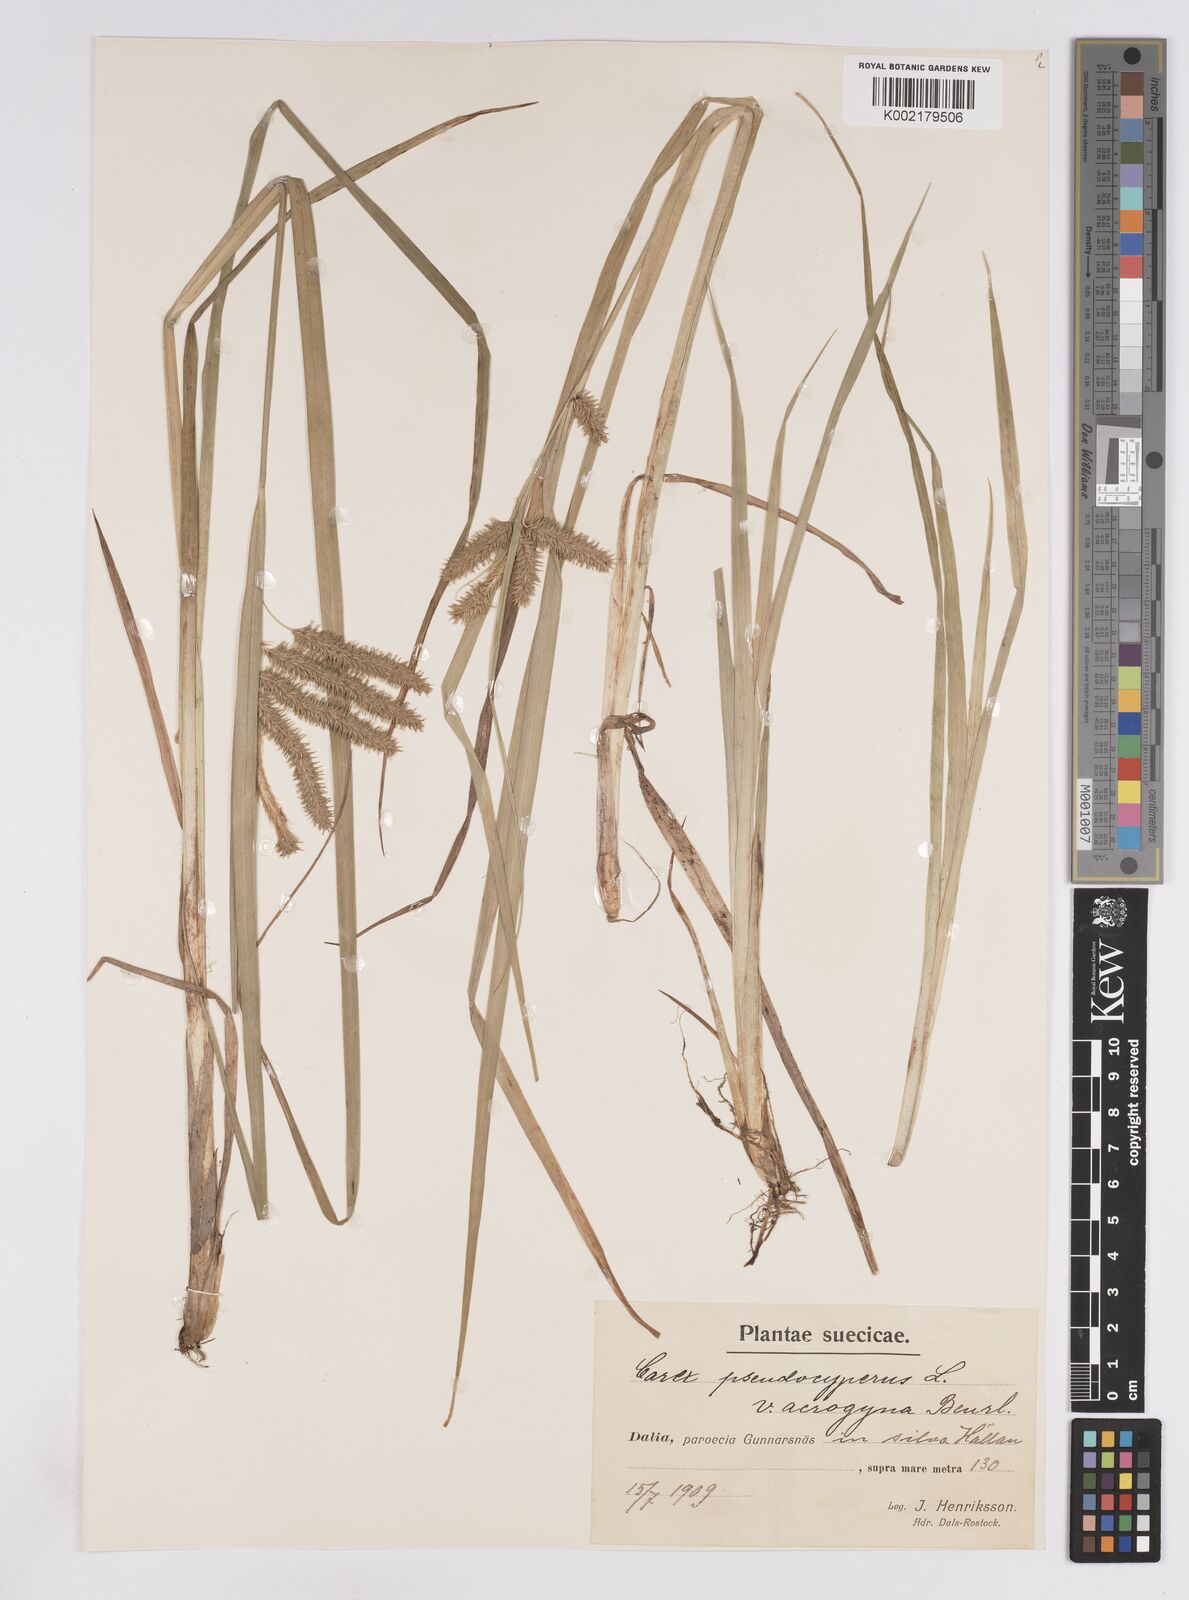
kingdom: Plantae
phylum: Tracheophyta
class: Liliopsida
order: Poales
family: Cyperaceae
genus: Carex
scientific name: Carex pseudocyperus
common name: Cyperus sedge
